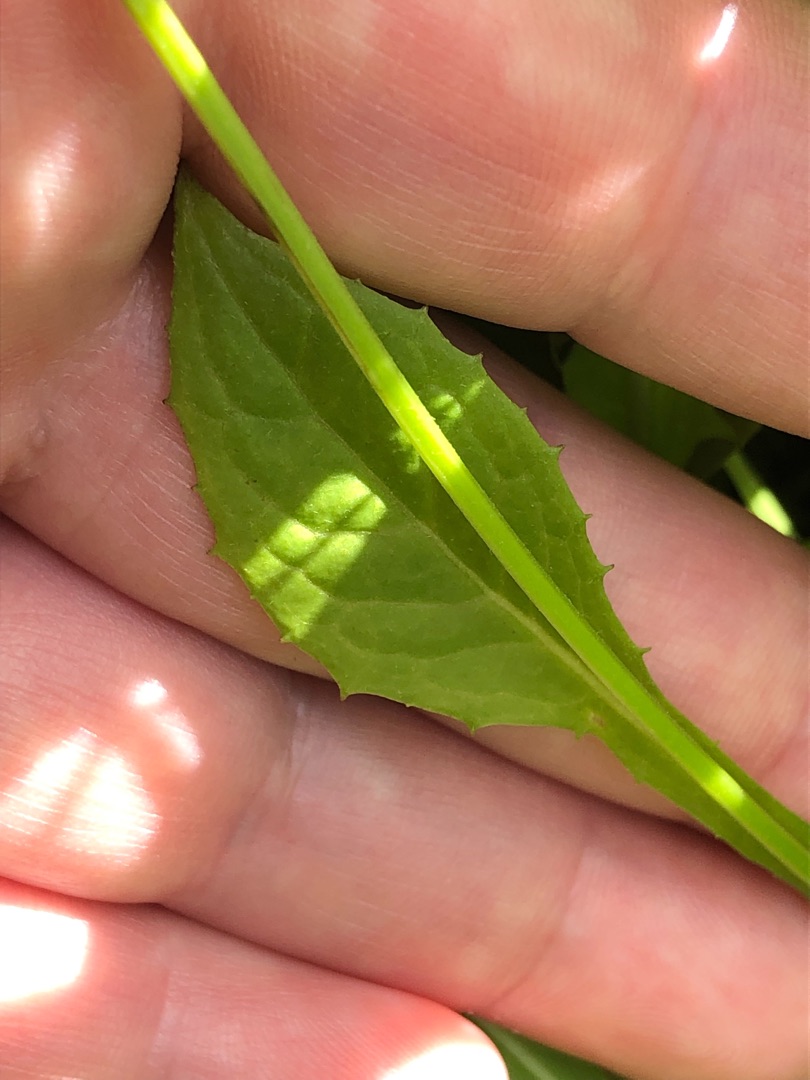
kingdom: Plantae
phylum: Tracheophyta
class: Magnoliopsida
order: Asterales
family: Asteraceae
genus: Crepis
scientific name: Crepis paludosa
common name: Kær-høgeskæg
